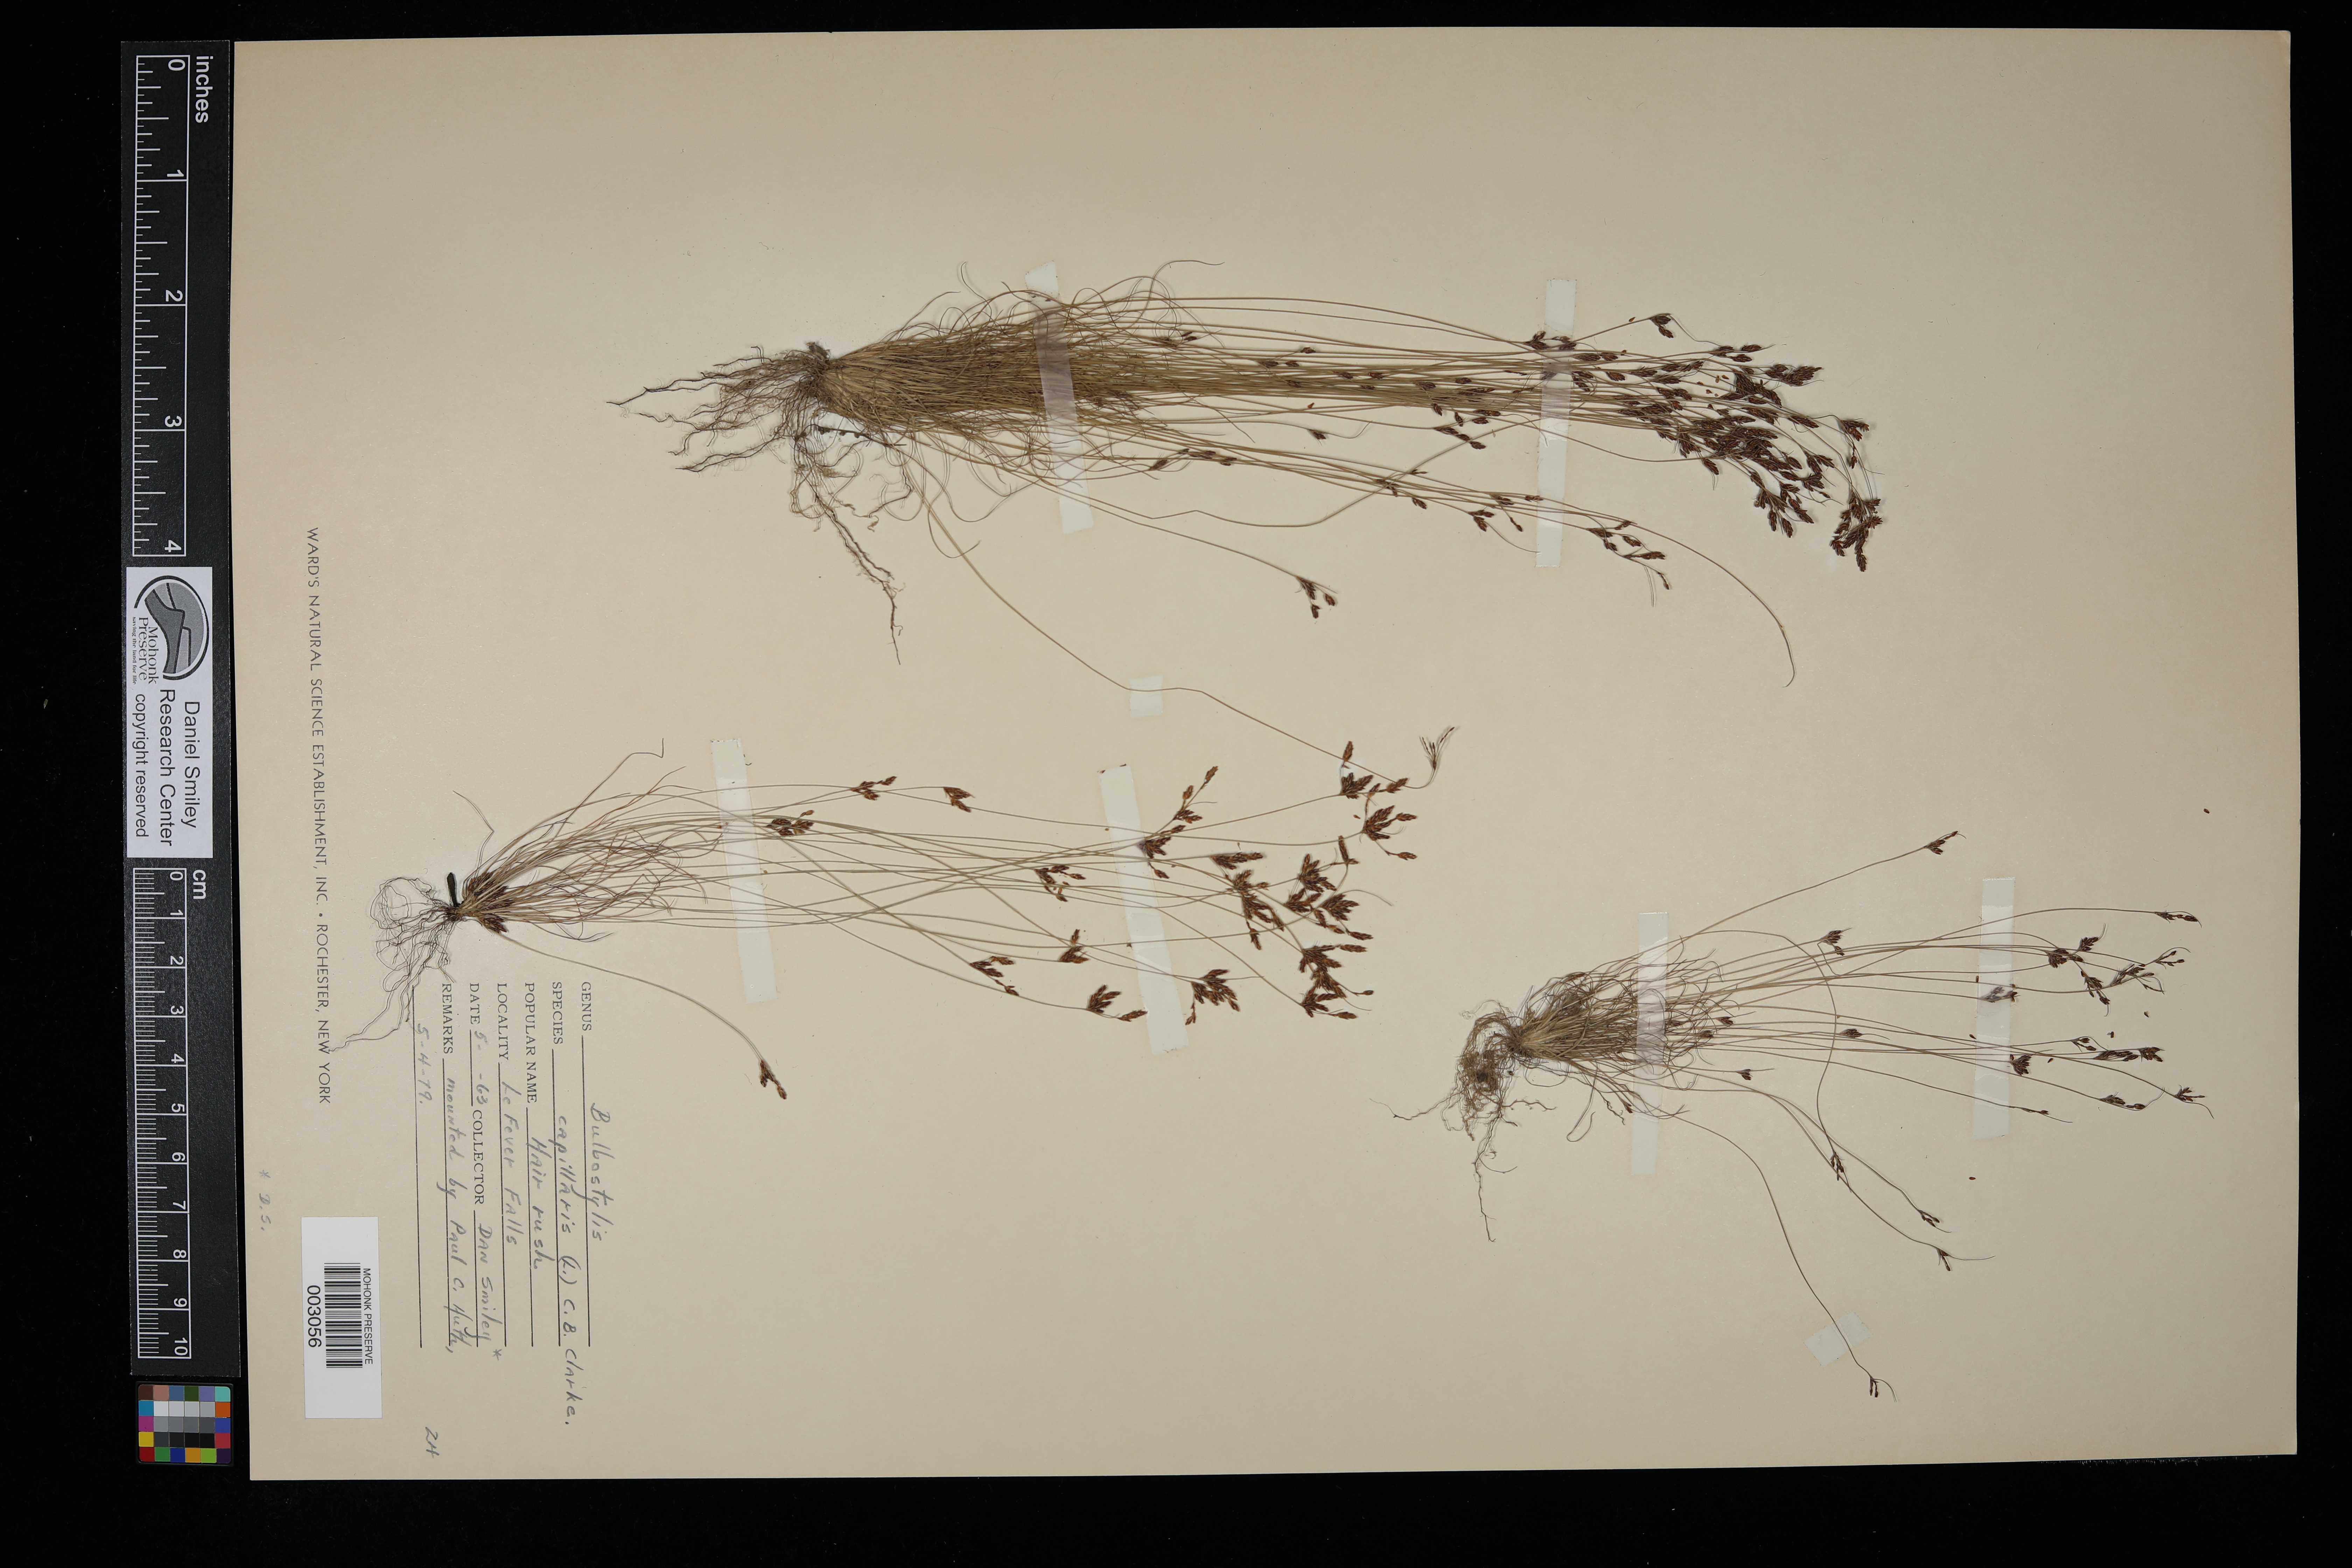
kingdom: Plantae
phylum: Tracheophyta
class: Liliopsida
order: Poales
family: Cyperaceae
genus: Bulbostylis
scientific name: Bulbostylis capillaris
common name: Densetuft hairsedge
